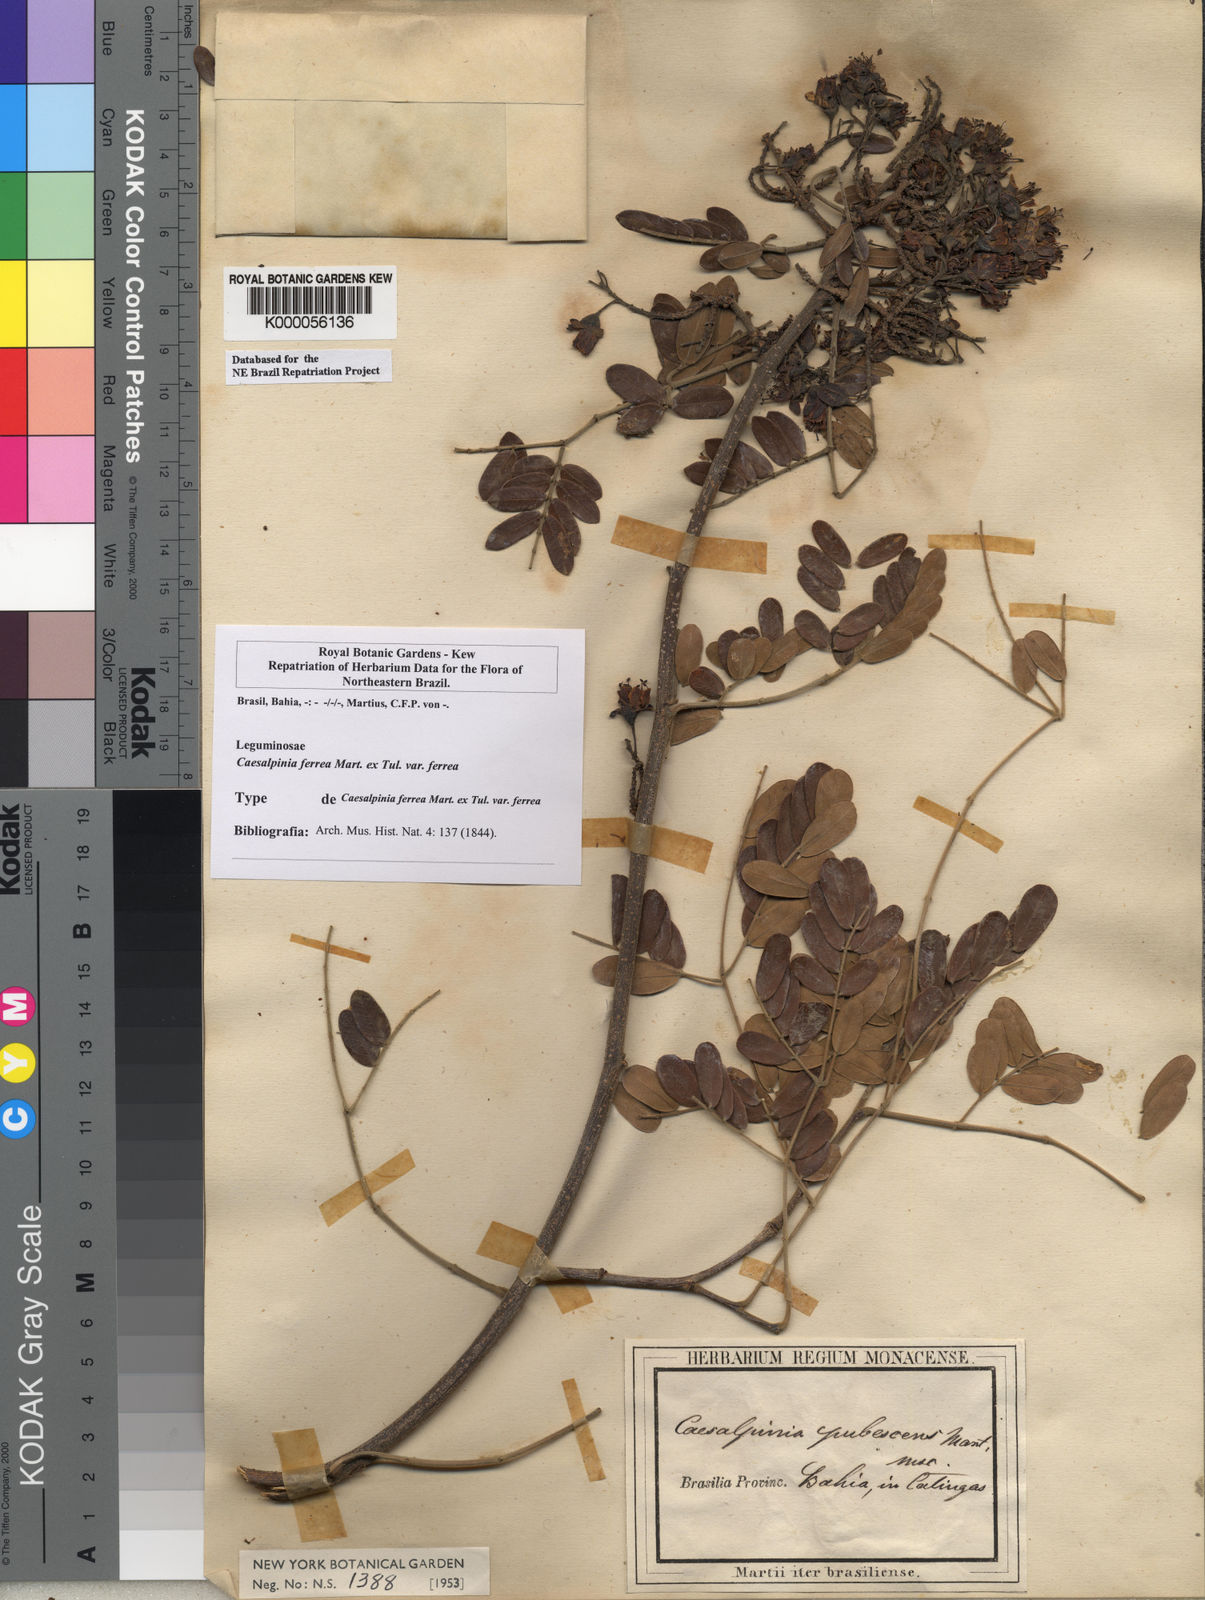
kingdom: Plantae
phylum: Tracheophyta
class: Magnoliopsida
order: Fabales
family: Fabaceae
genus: Libidibia
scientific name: Libidibia ferrea
